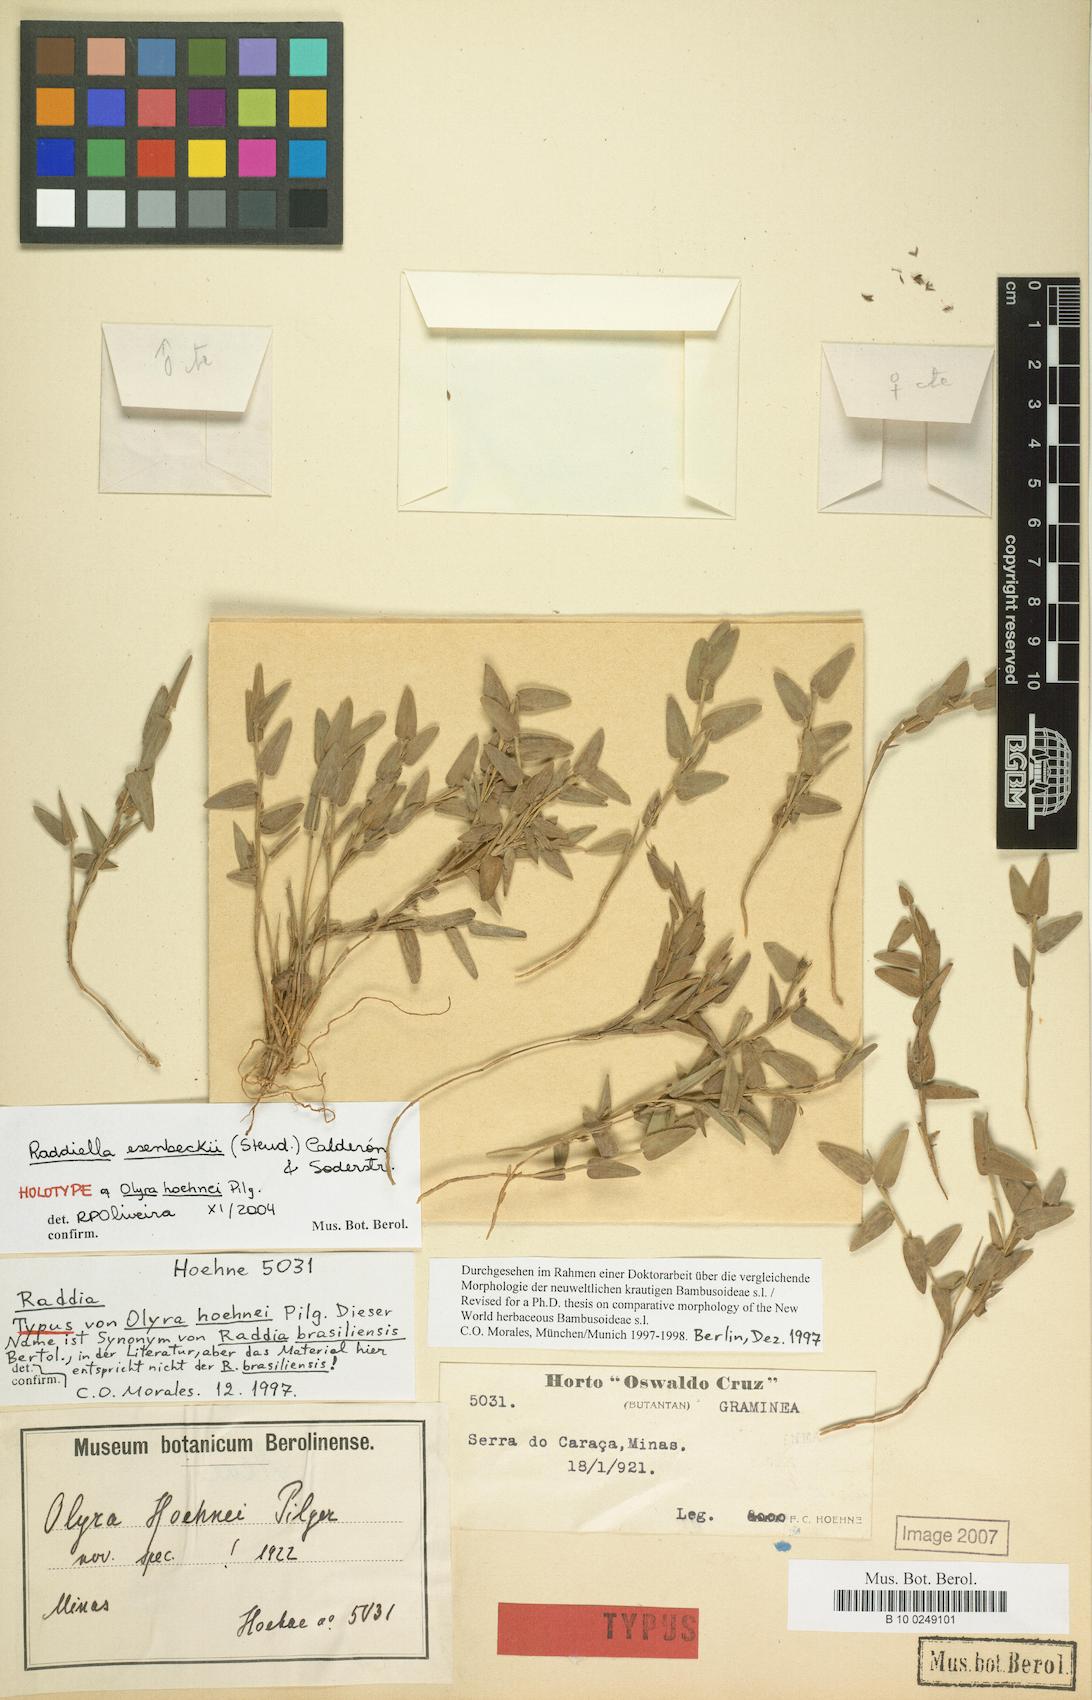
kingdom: Plantae
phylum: Tracheophyta
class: Liliopsida
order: Poales
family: Poaceae
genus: Raddia
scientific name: Raddia brasiliensis
